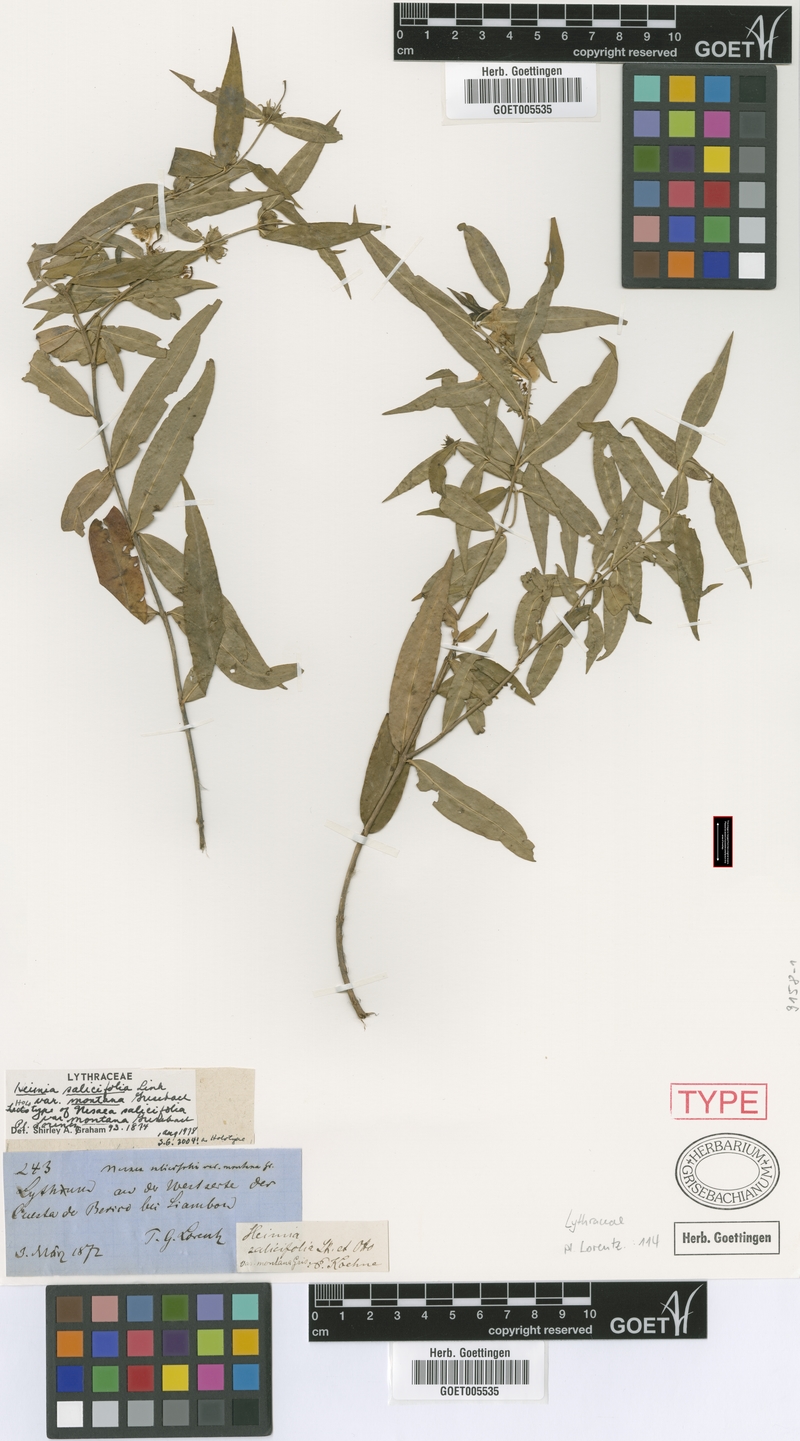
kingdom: Plantae
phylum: Tracheophyta
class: Magnoliopsida
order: Myrtales
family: Lythraceae
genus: Heimia
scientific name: Heimia montana
